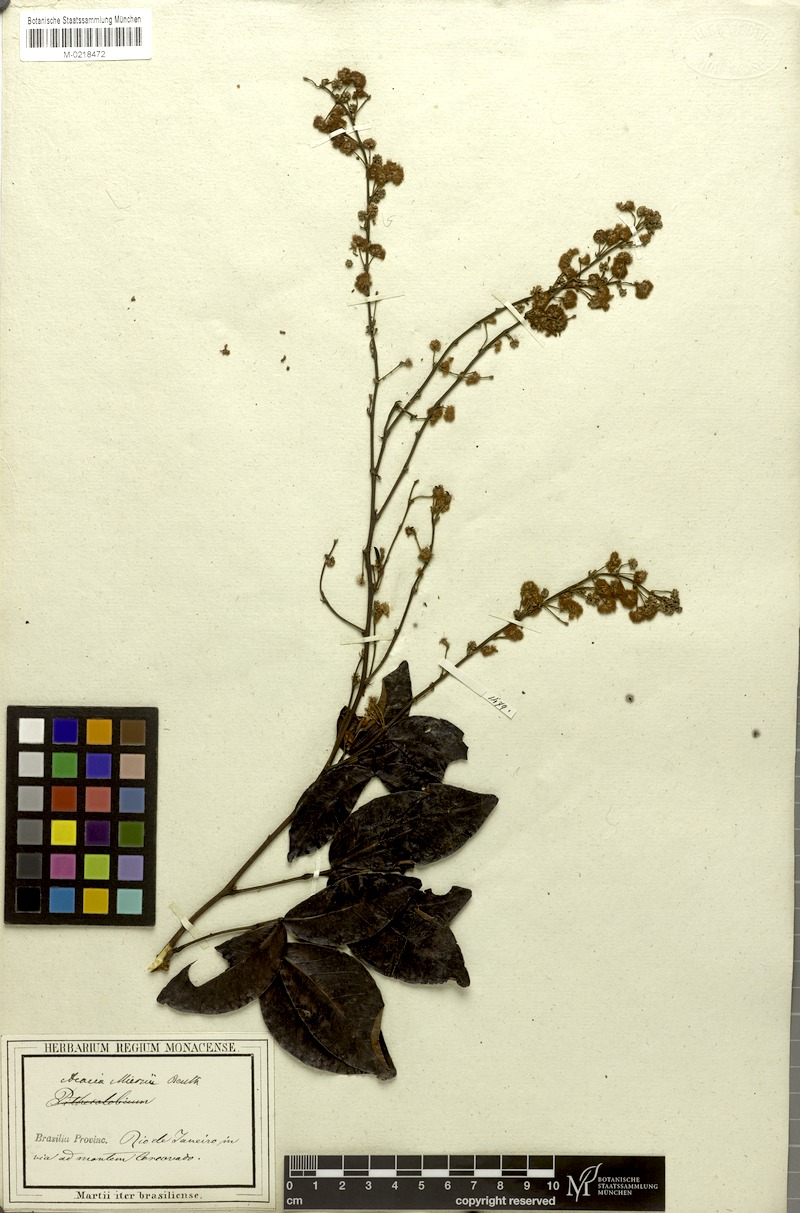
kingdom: Plantae
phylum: Tracheophyta
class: Magnoliopsida
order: Fabales
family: Fabaceae
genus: Parasenegalia
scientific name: Parasenegalia miersii
